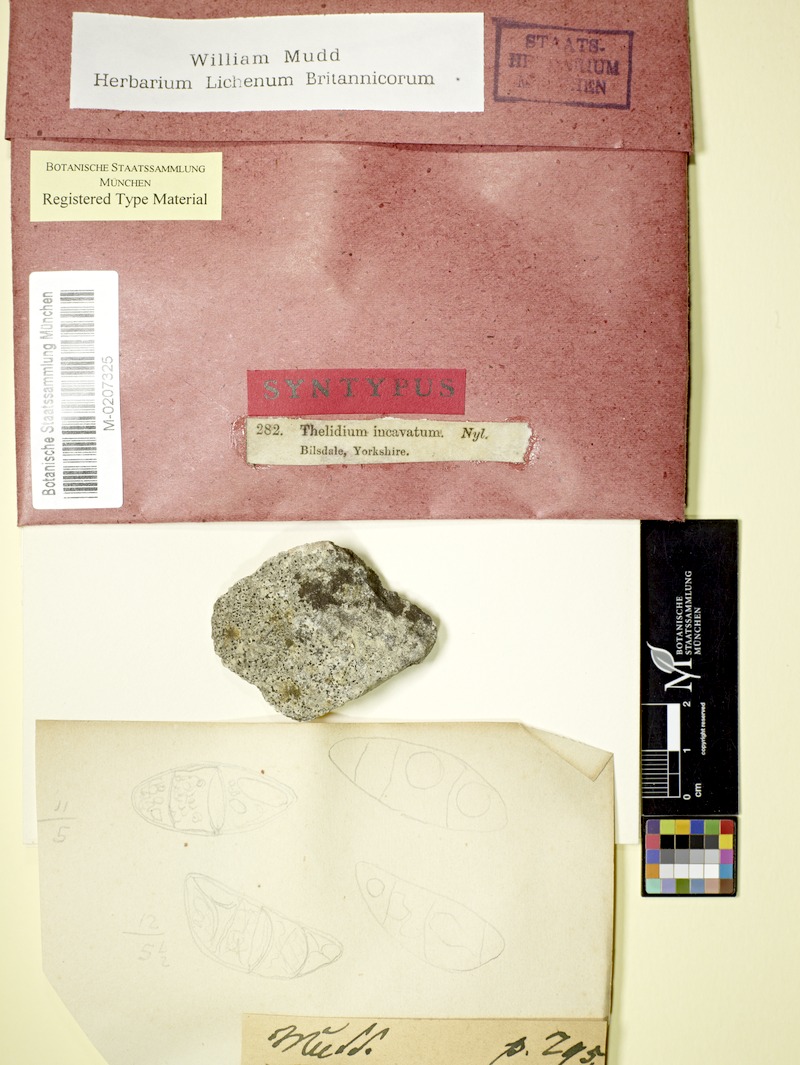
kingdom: Fungi
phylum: Ascomycota
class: Eurotiomycetes
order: Verrucariales
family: Verrucariaceae
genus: Thelidium
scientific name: Thelidium incavatum
